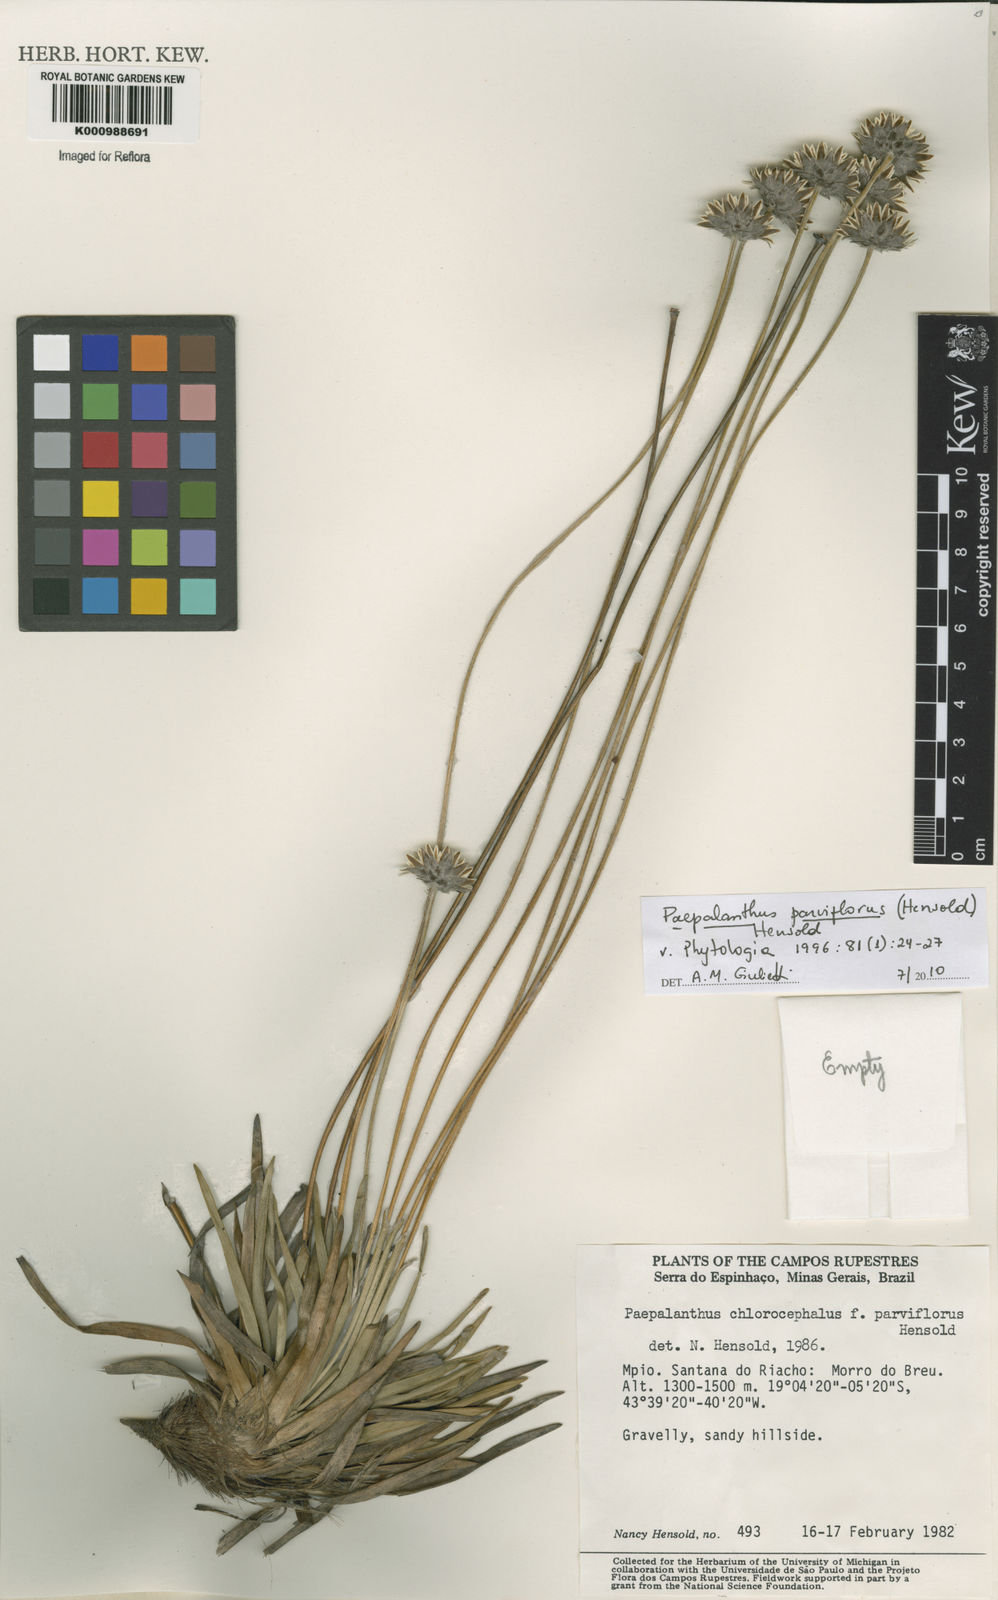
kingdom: Plantae
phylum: Tracheophyta
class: Liliopsida
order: Poales
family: Eriocaulaceae
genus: Paepalanthus
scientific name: Paepalanthus parviflorus
